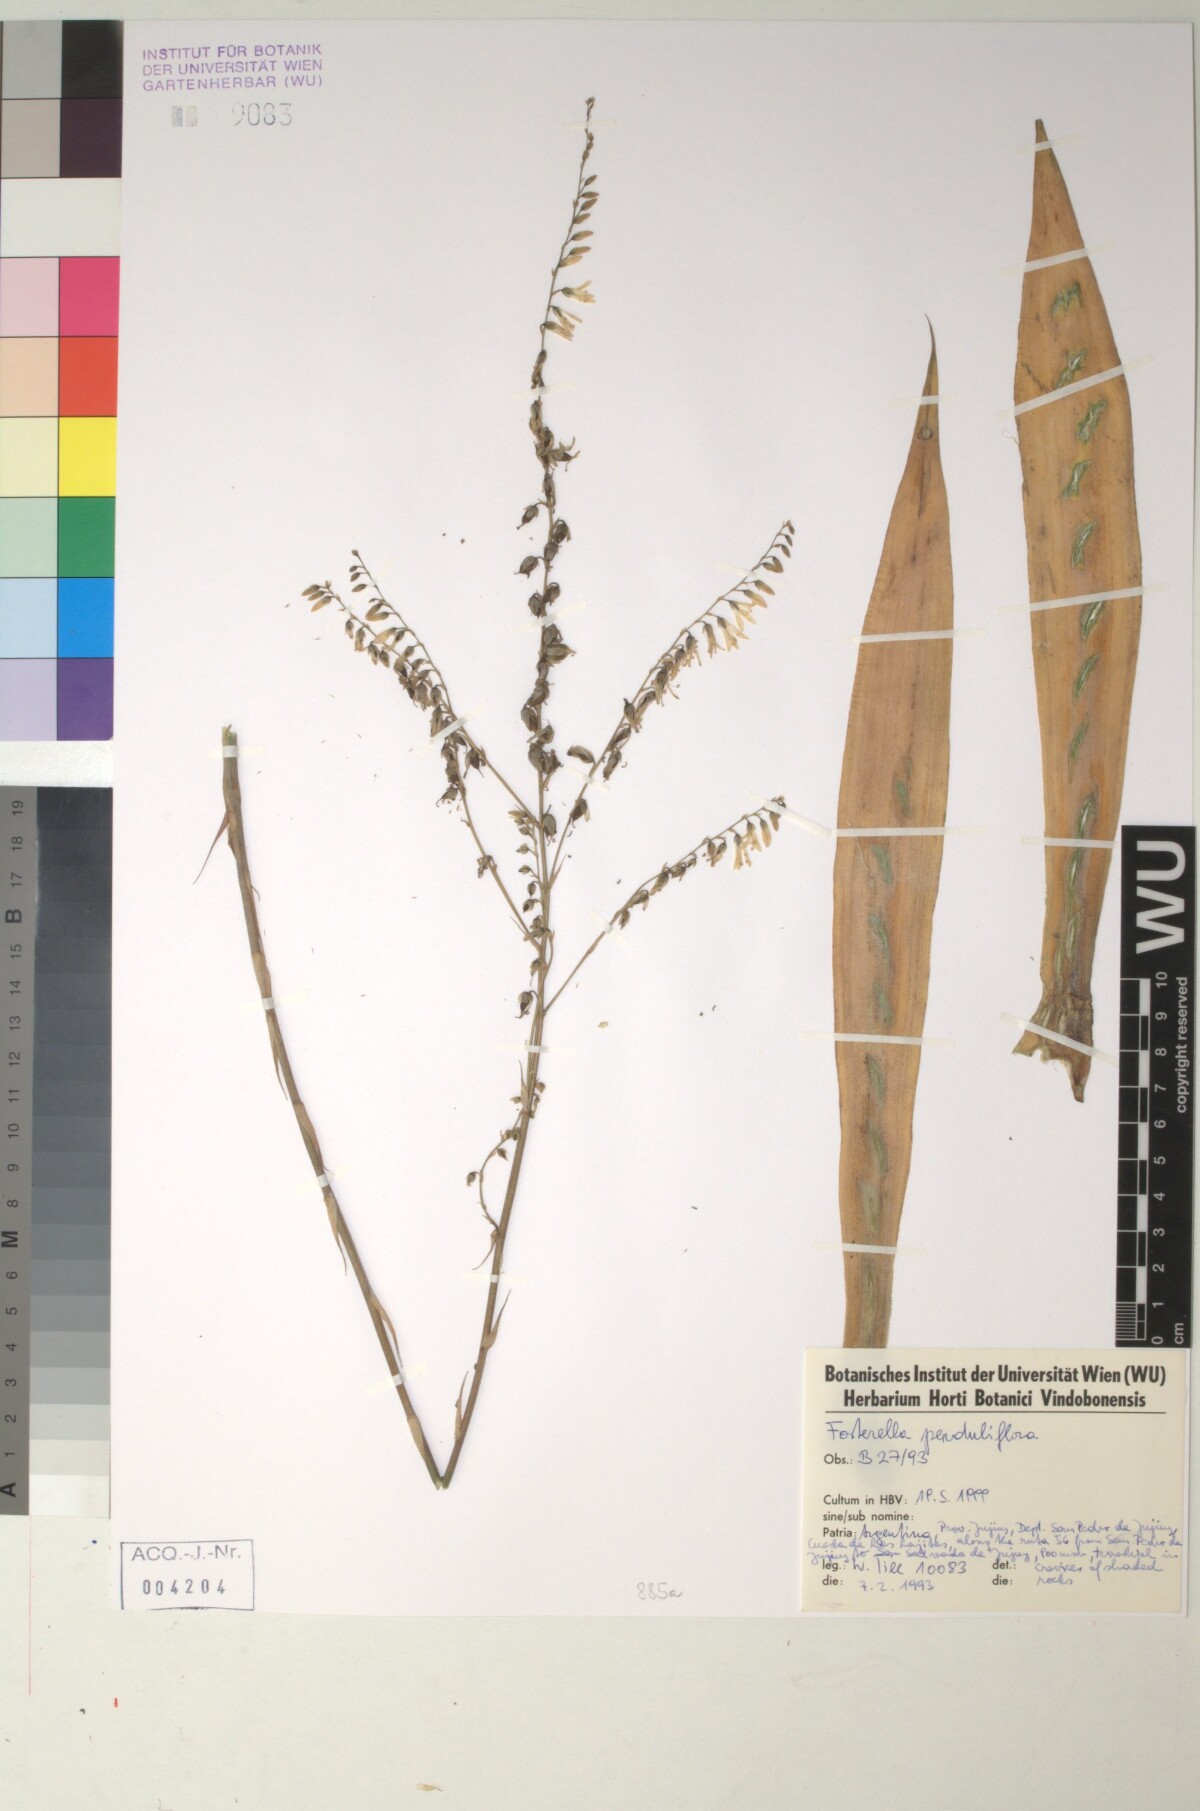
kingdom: Plantae
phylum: Tracheophyta
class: Liliopsida
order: Poales
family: Bromeliaceae
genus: Fosterella
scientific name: Fosterella penduliflora
